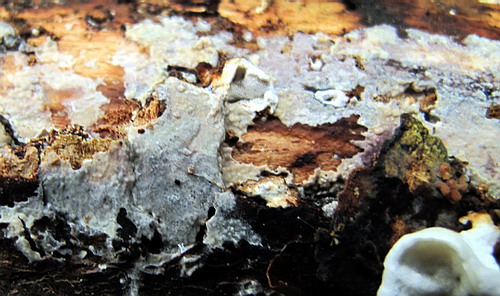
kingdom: Fungi
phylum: Basidiomycota
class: Agaricomycetes
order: Polyporales
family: Steccherinaceae
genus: Antrodiella
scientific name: Antrodiella faginea
